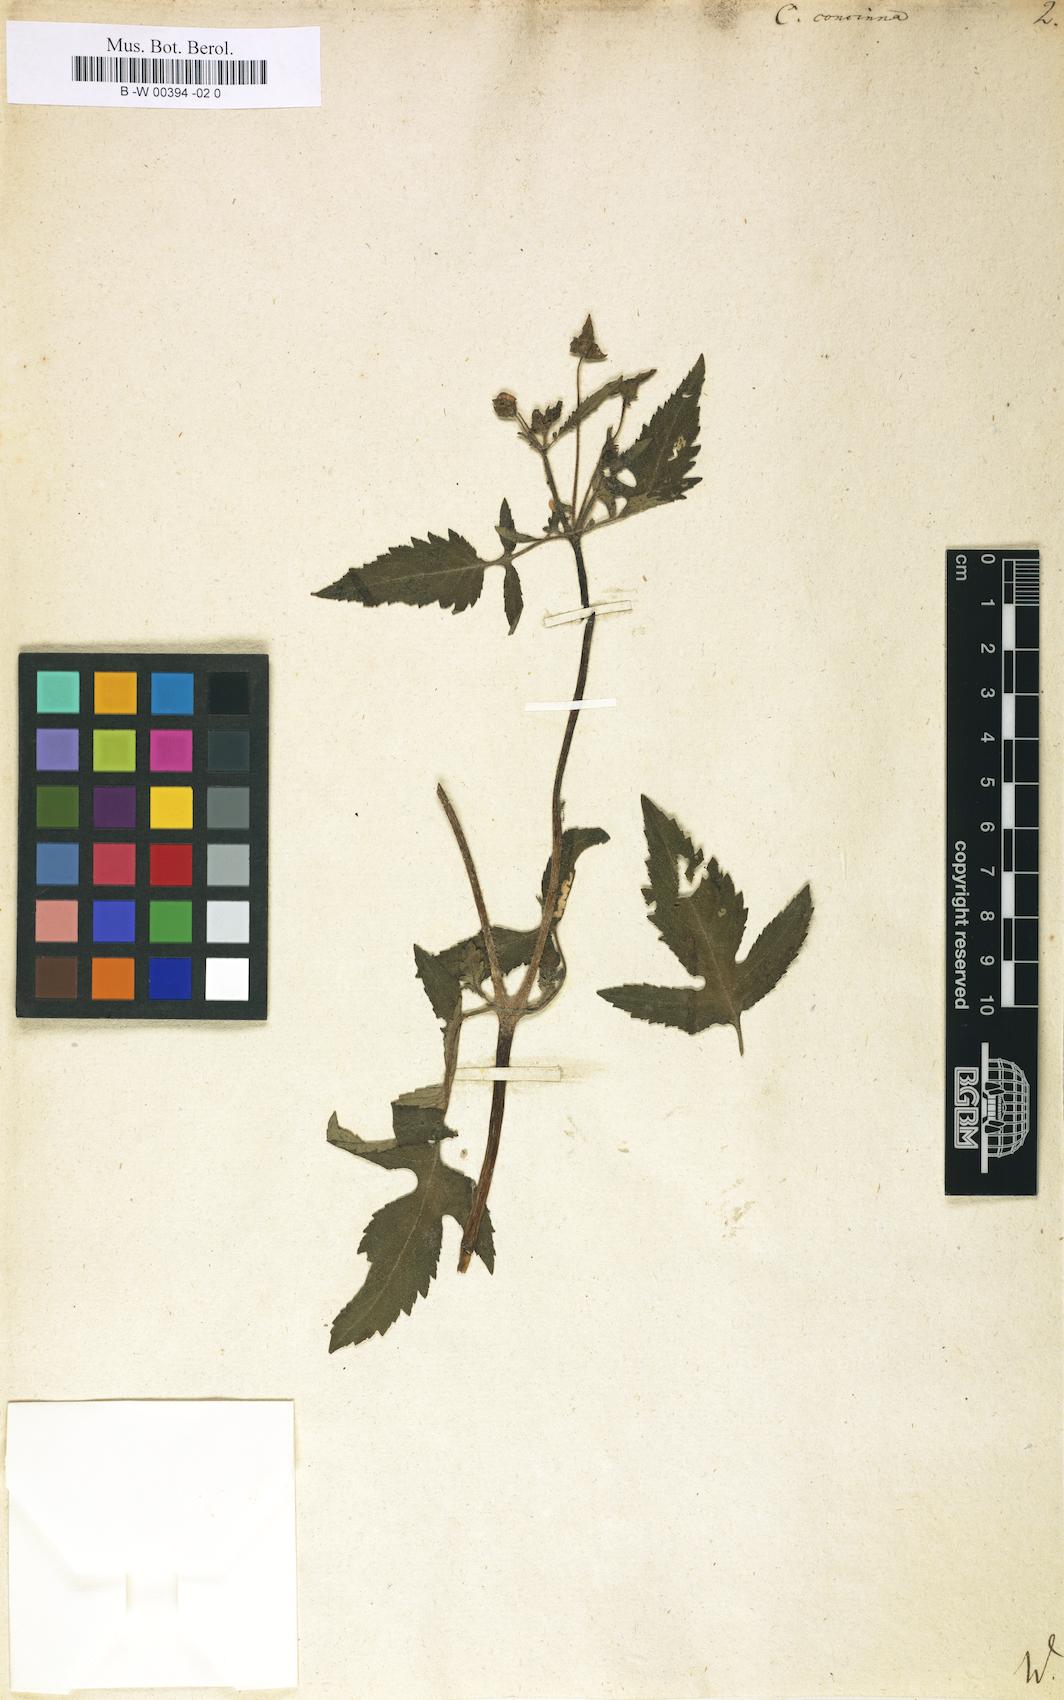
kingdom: Plantae
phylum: Tracheophyta
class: Magnoliopsida
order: Lamiales
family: Calceolariaceae
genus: Calceolaria
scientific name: Calceolaria tripartita
